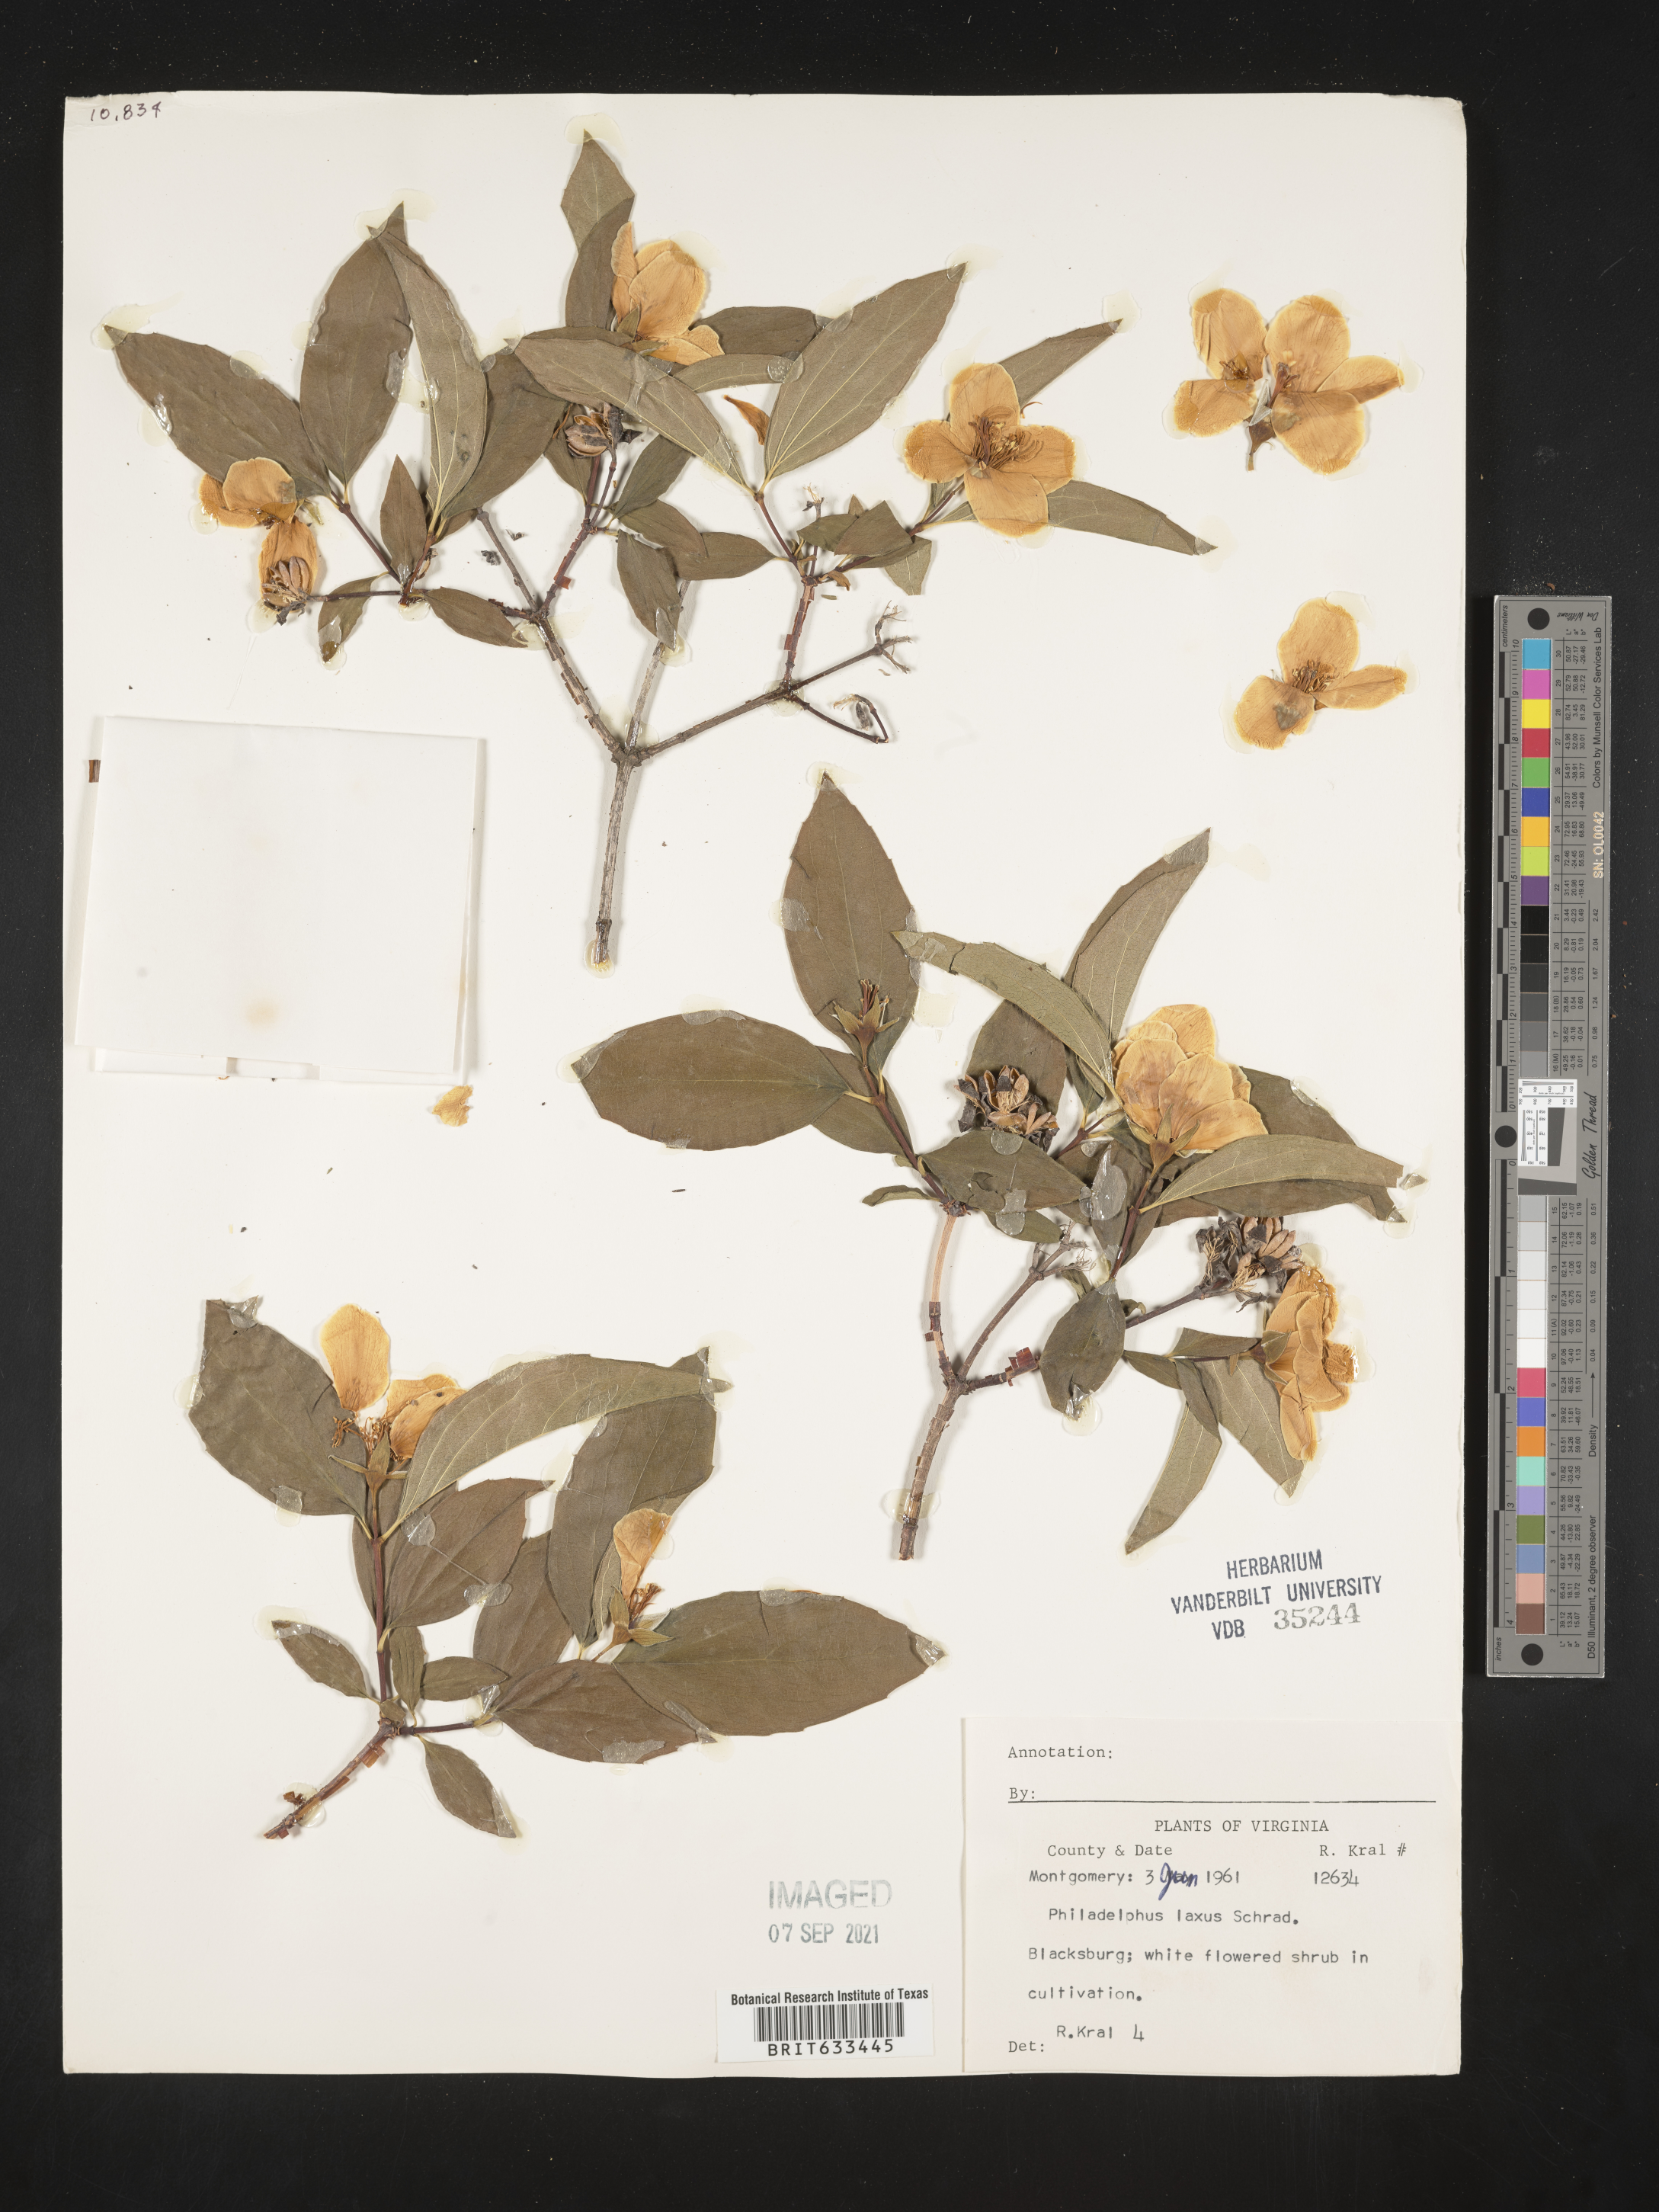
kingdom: Plantae
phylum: Tracheophyta
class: Magnoliopsida
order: Cornales
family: Hydrangeaceae
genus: Philadelphus
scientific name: Philadelphus
